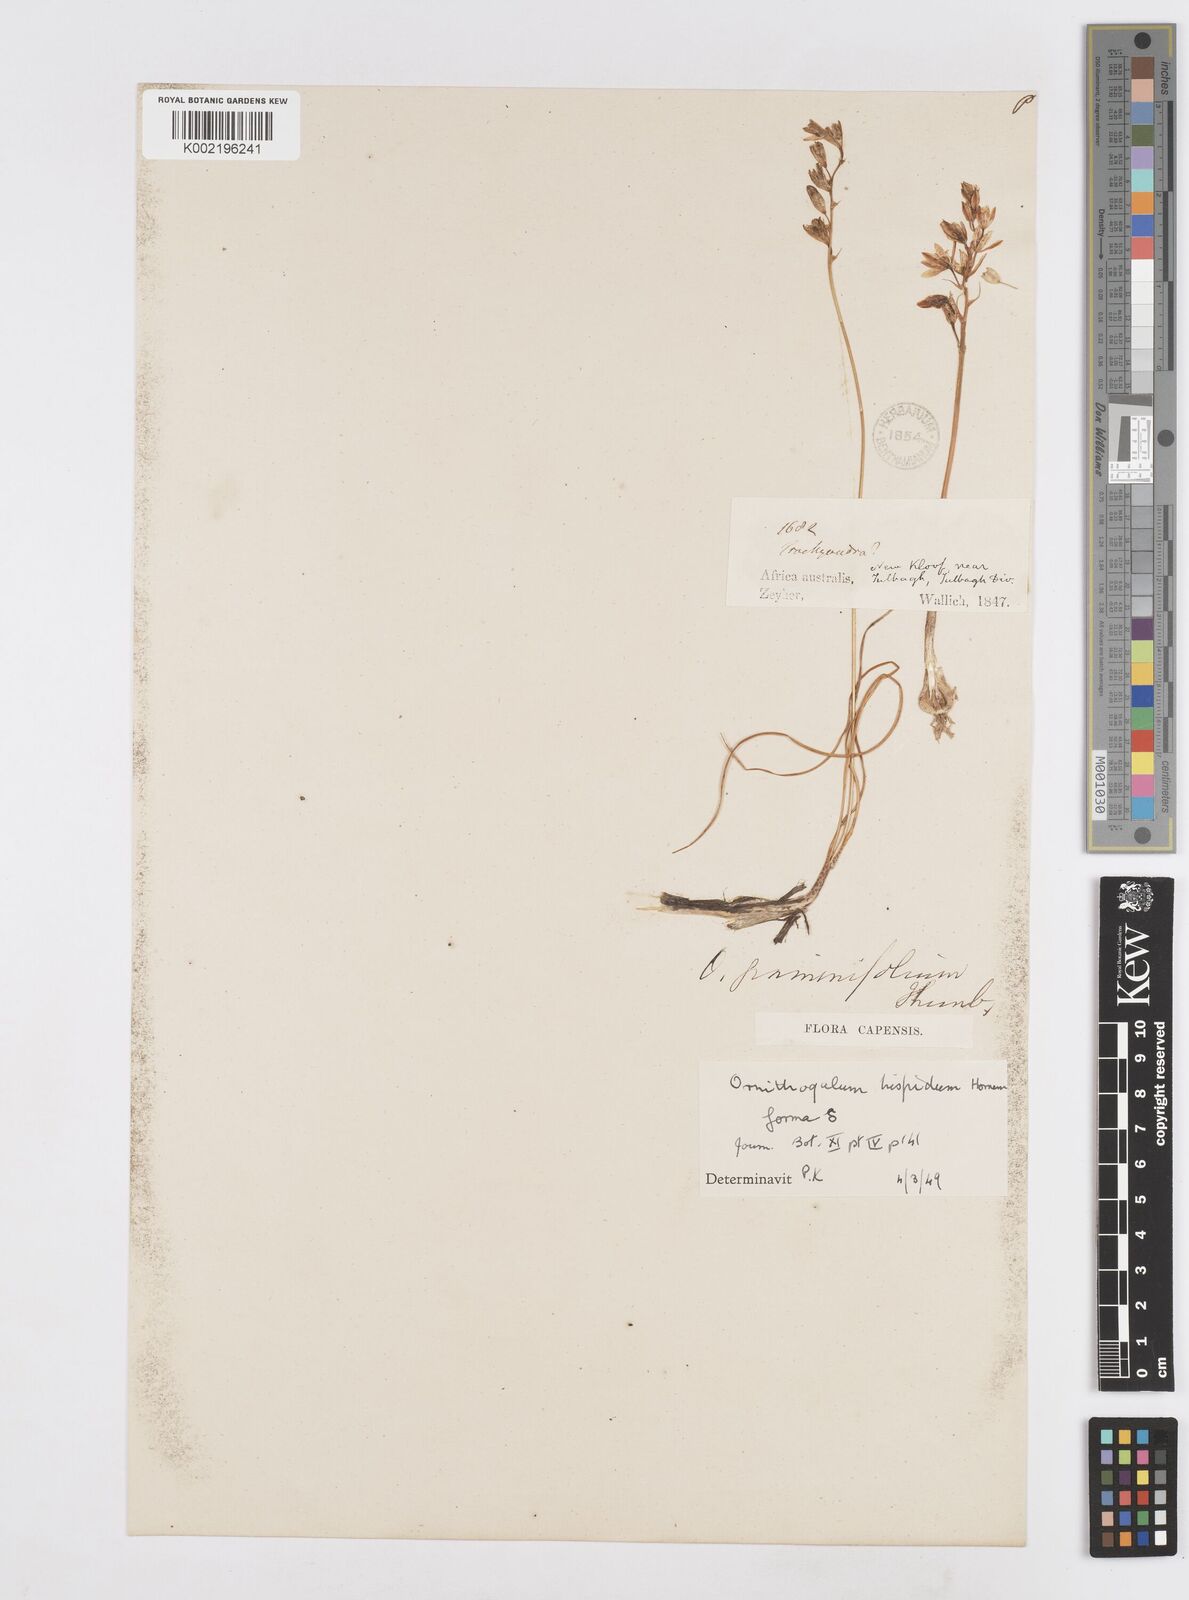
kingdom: Plantae
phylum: Tracheophyta
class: Liliopsida
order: Asparagales
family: Asparagaceae
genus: Ornithogalum
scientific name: Ornithogalum hispidum
